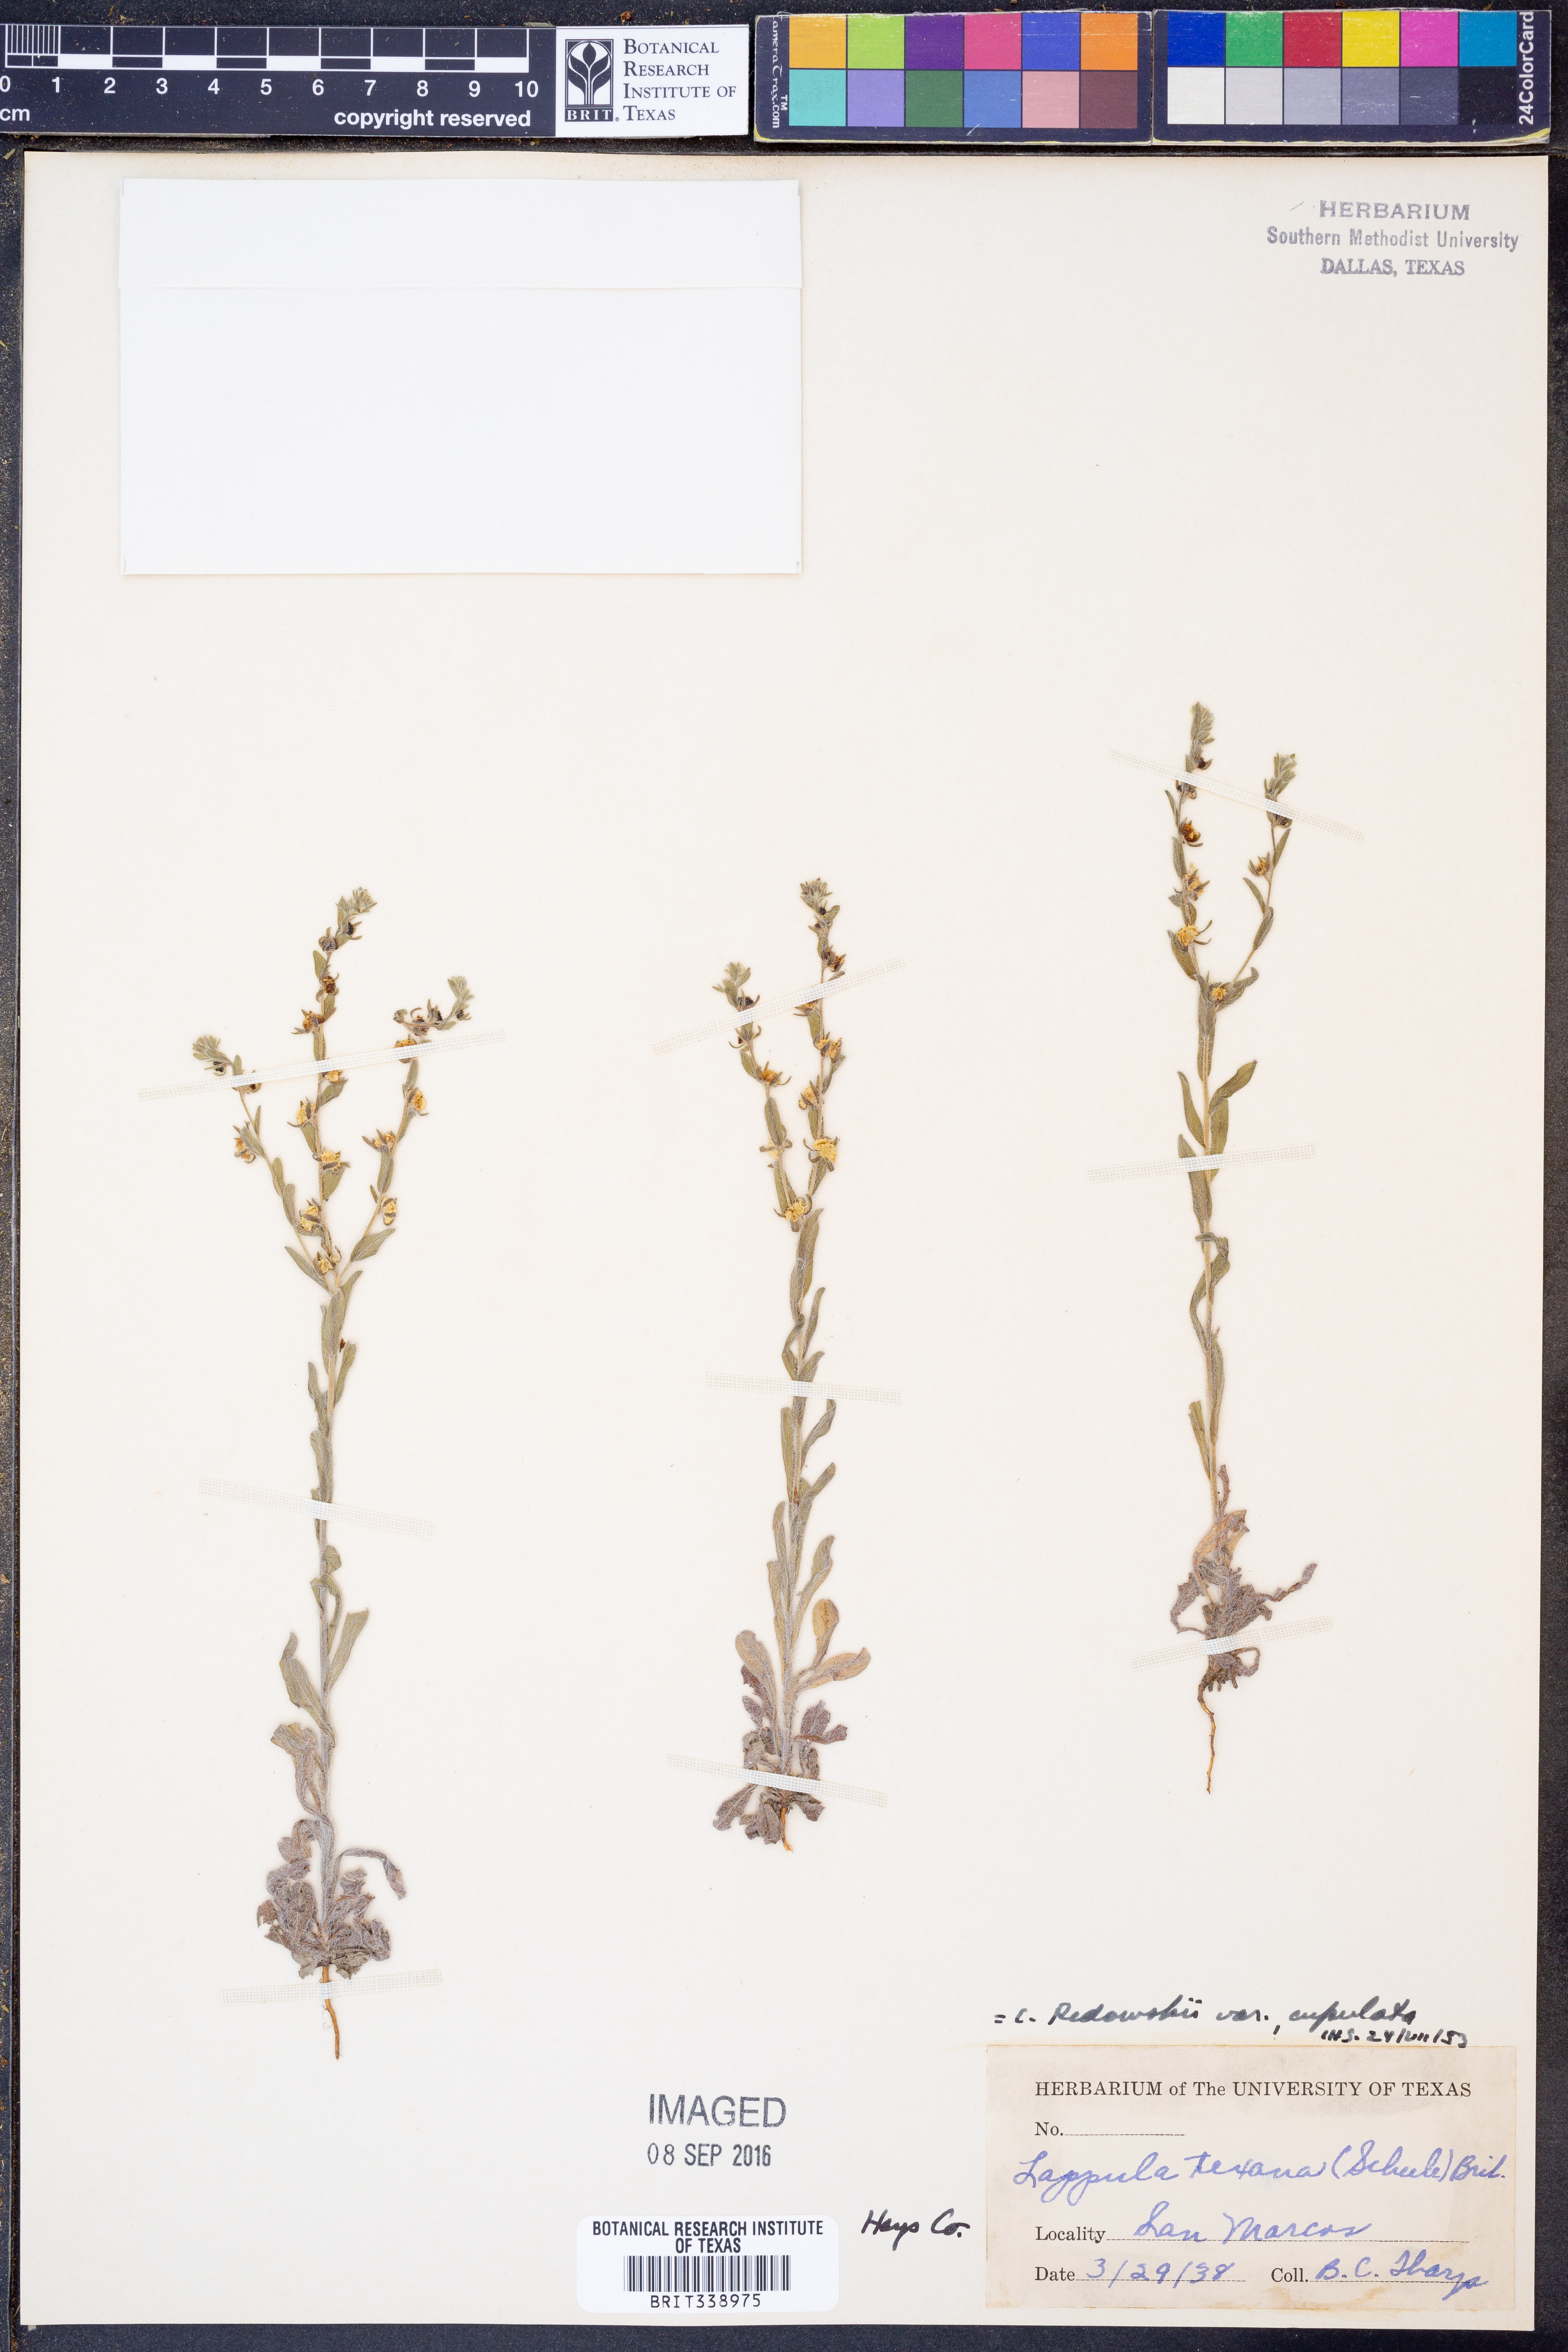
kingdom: Plantae
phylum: Tracheophyta
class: Magnoliopsida
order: Boraginales
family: Boraginaceae
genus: Lappula
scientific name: Lappula occidentalis
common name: Western stickseed
